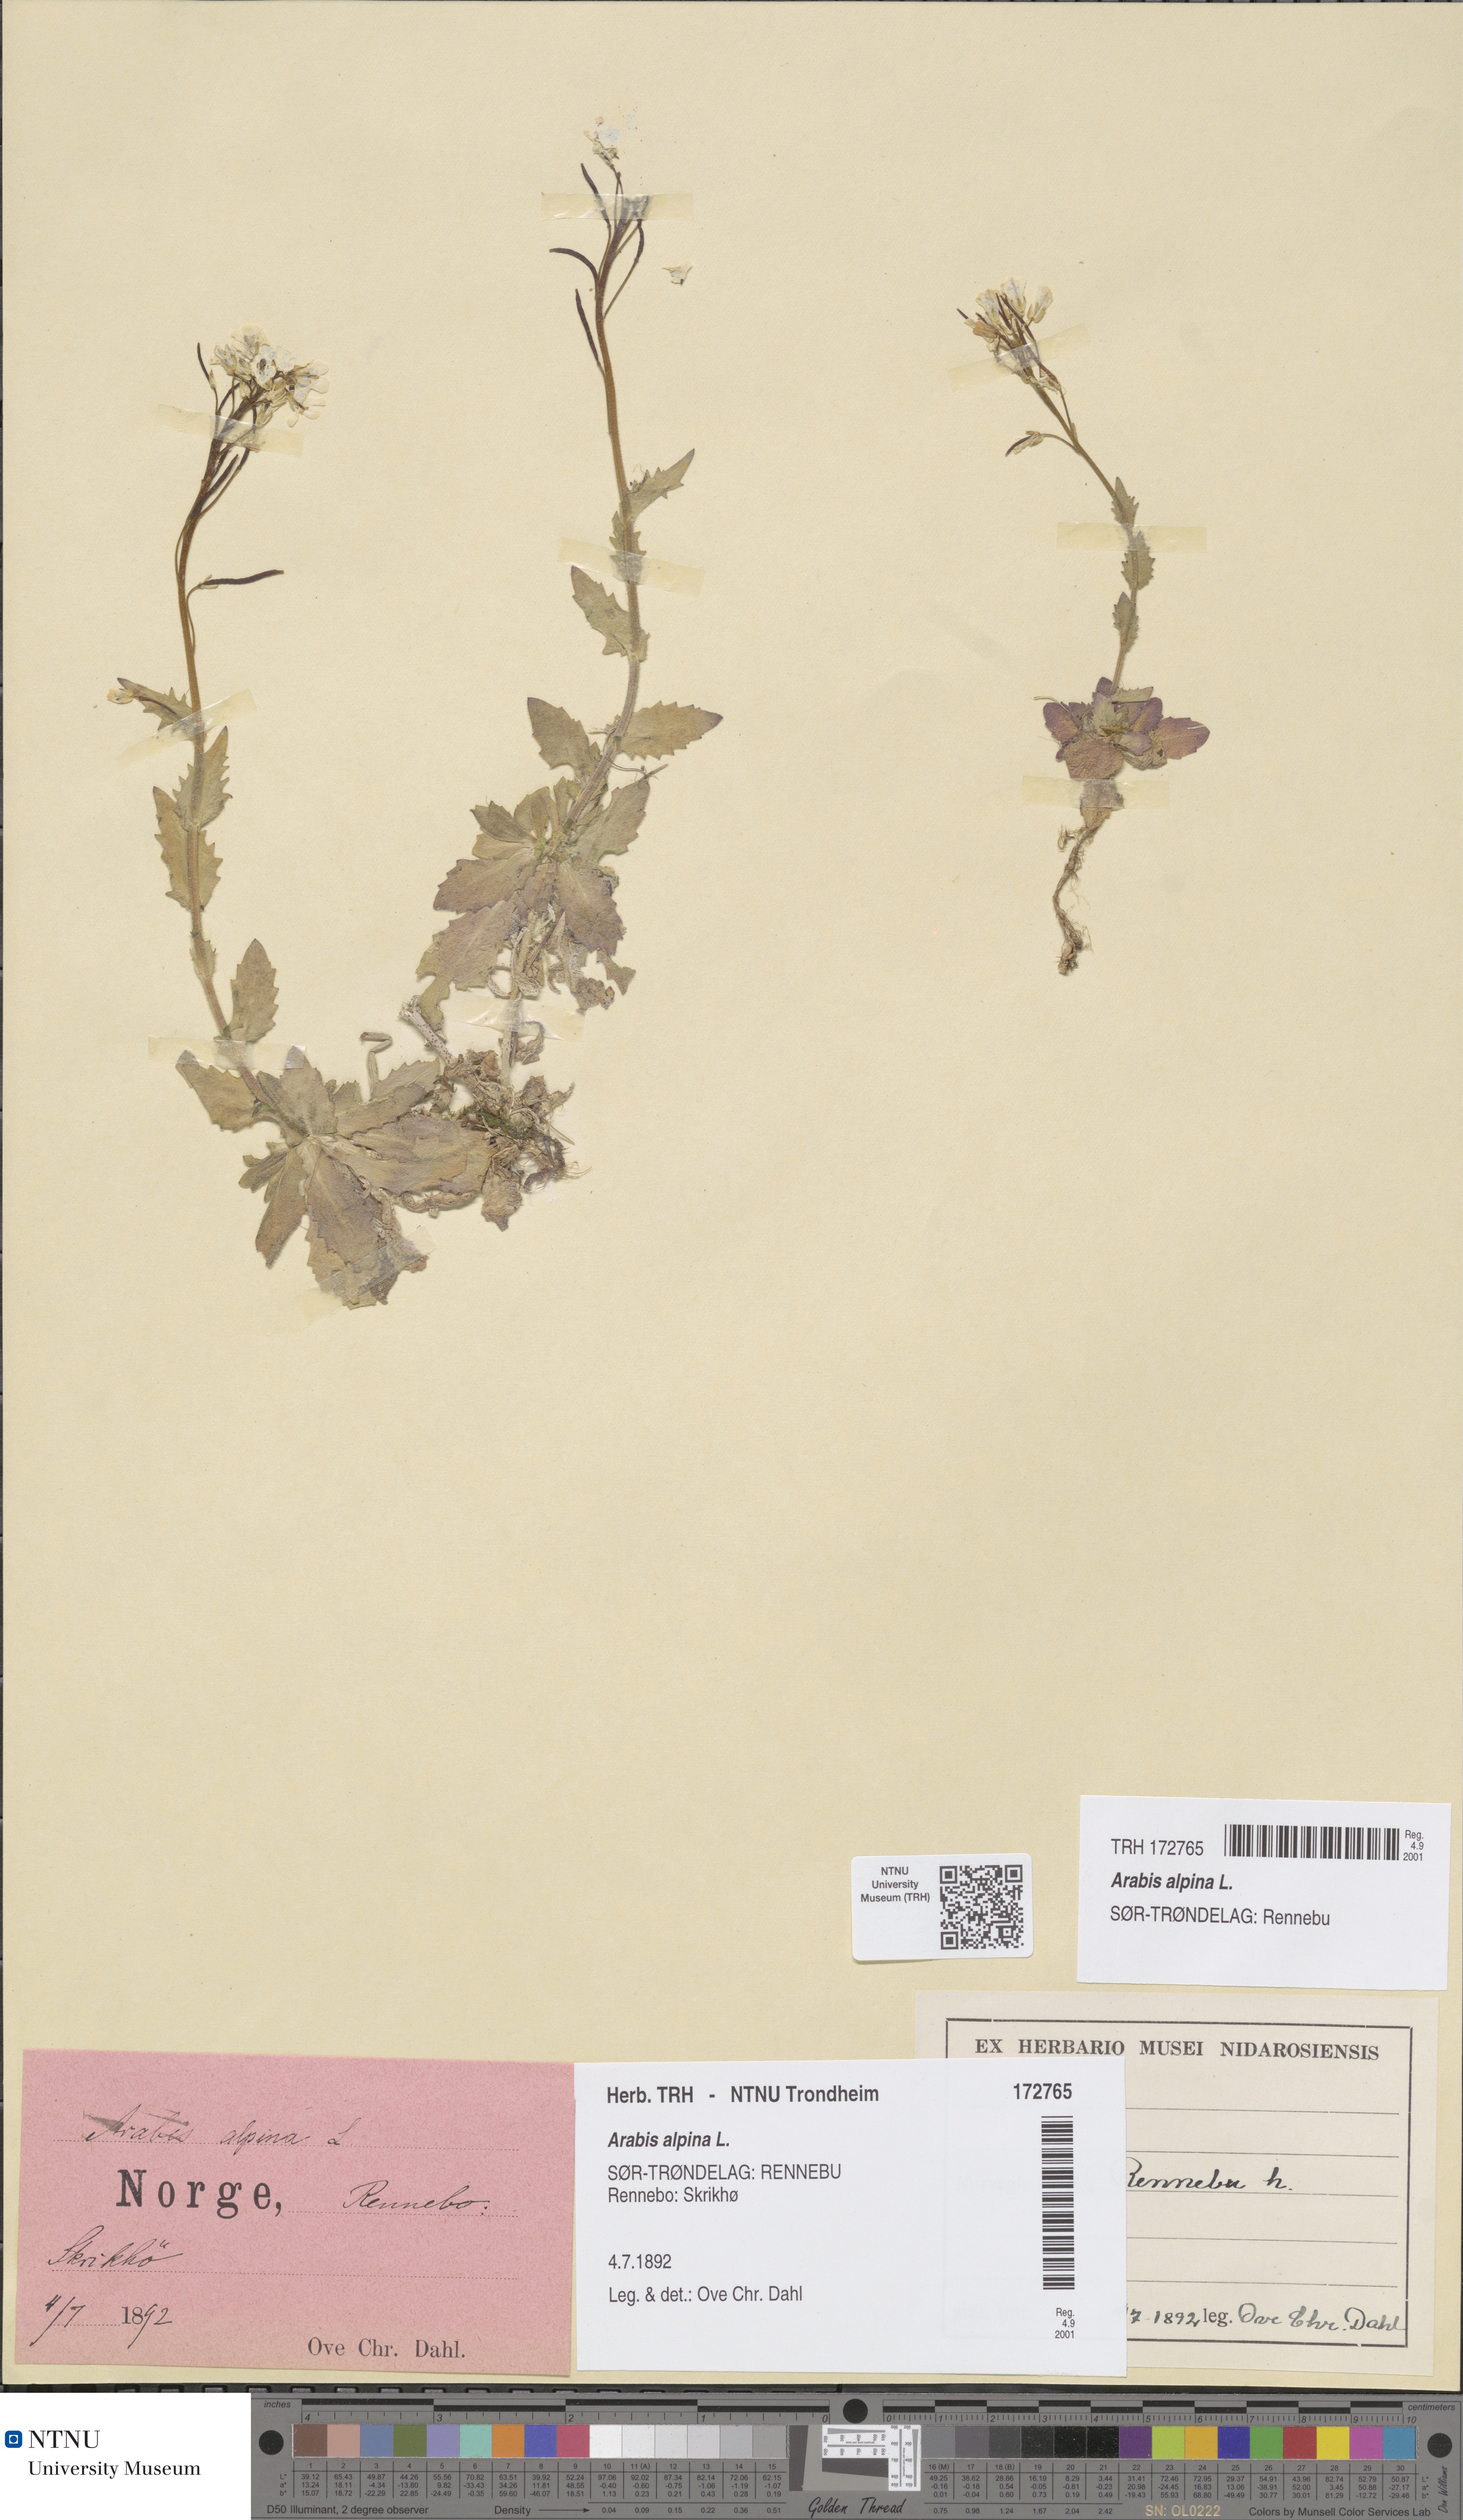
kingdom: Plantae
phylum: Tracheophyta
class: Magnoliopsida
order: Brassicales
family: Brassicaceae
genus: Arabis
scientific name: Arabis alpina
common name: Alpine rock-cress
